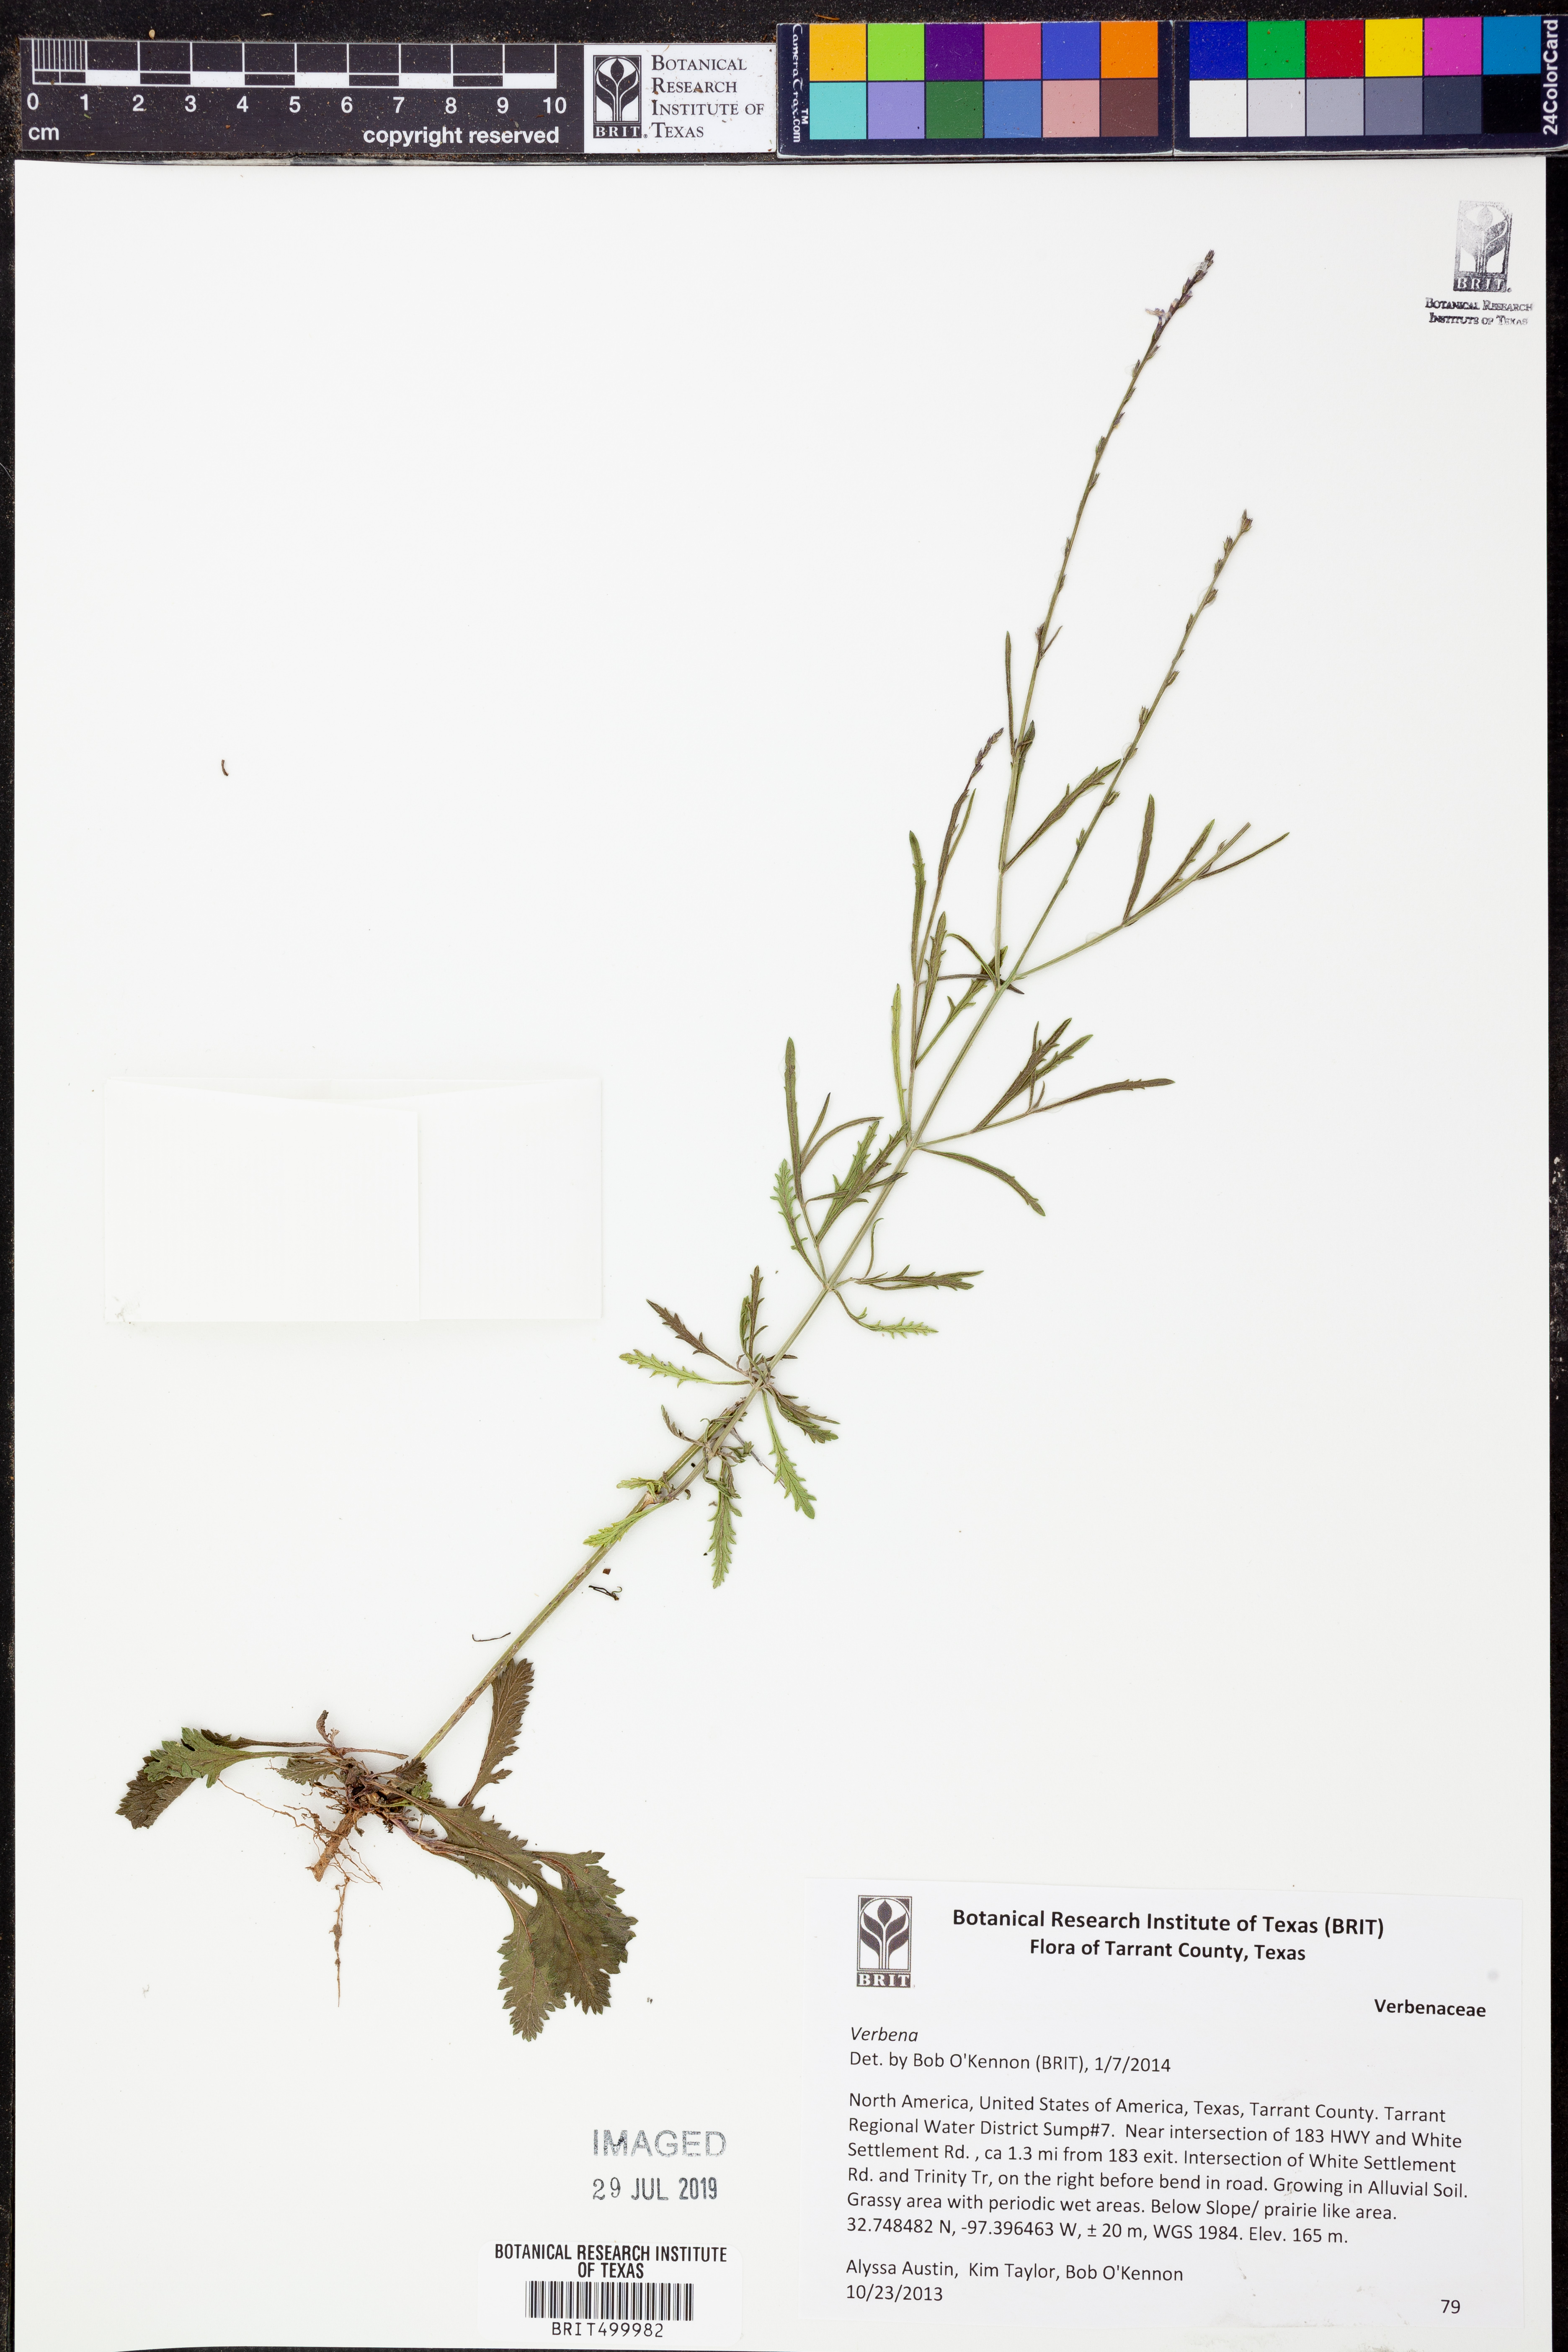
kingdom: Plantae
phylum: Tracheophyta
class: Magnoliopsida
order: Lamiales
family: Verbenaceae
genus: Verbena
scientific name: Verbena
